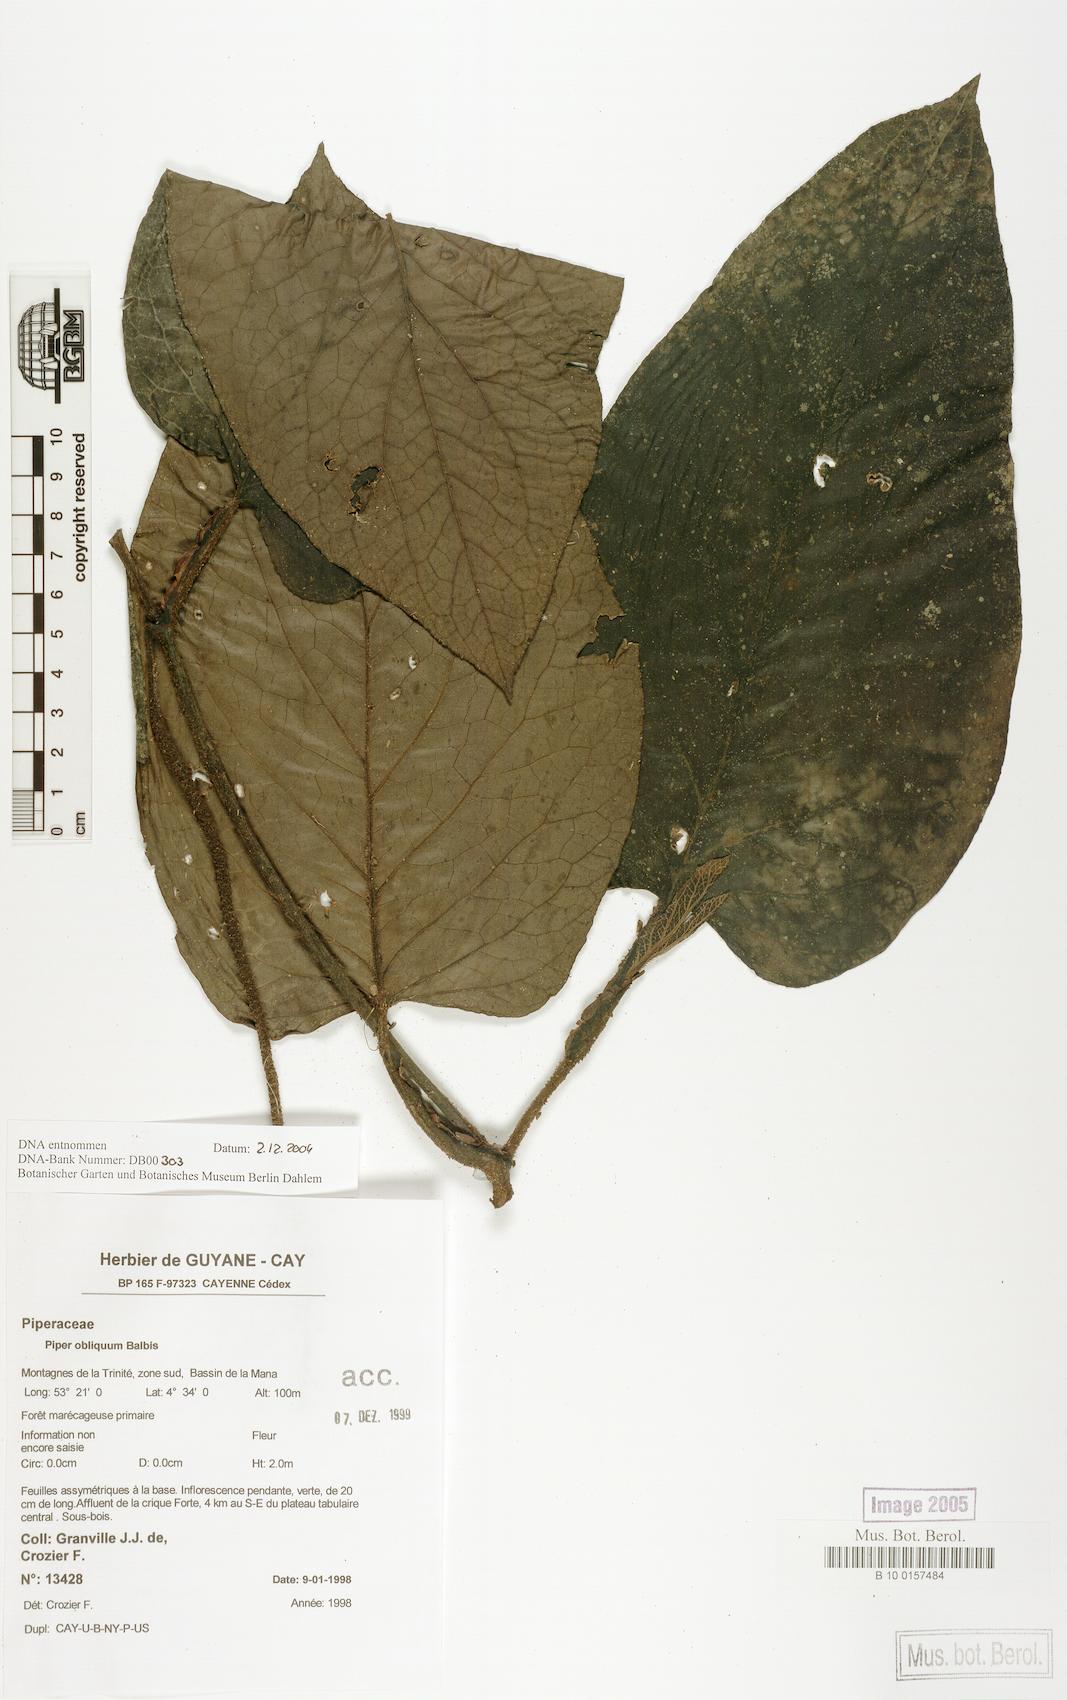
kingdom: Plantae
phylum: Tracheophyta
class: Magnoliopsida
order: Piperales
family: Piperaceae
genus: Piper
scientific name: Piper tuberculatum
